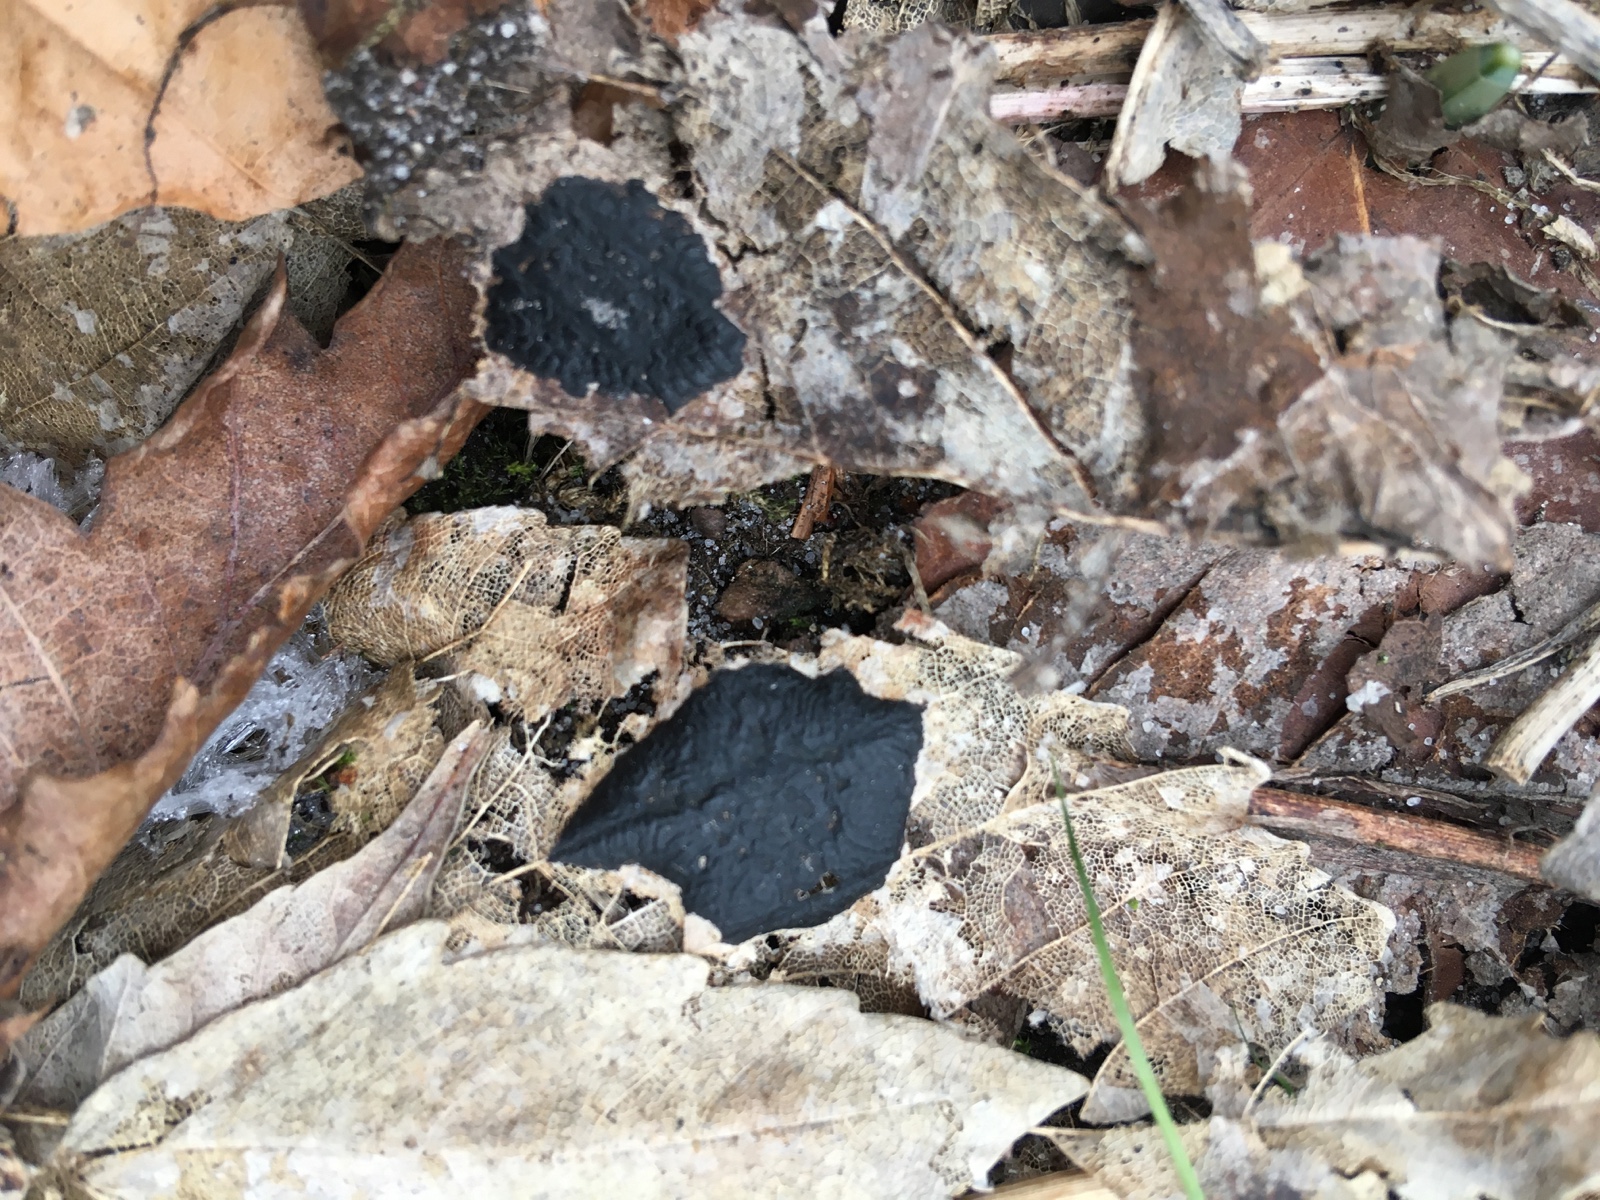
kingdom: Fungi
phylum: Ascomycota
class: Leotiomycetes
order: Rhytismatales
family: Rhytismataceae
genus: Rhytisma
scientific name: Rhytisma acerinum
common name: ahorn-rynkeplet
